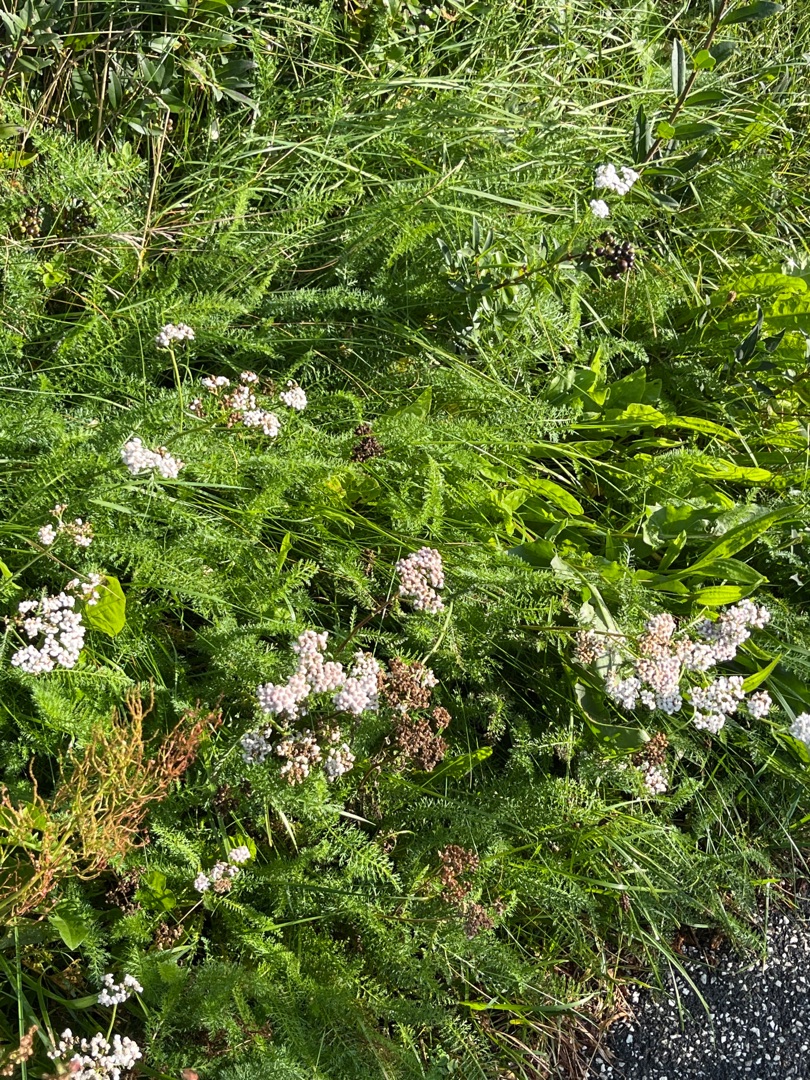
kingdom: Plantae
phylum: Tracheophyta
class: Magnoliopsida
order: Asterales
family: Asteraceae
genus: Achillea
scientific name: Achillea millefolium
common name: Almindelig røllike
